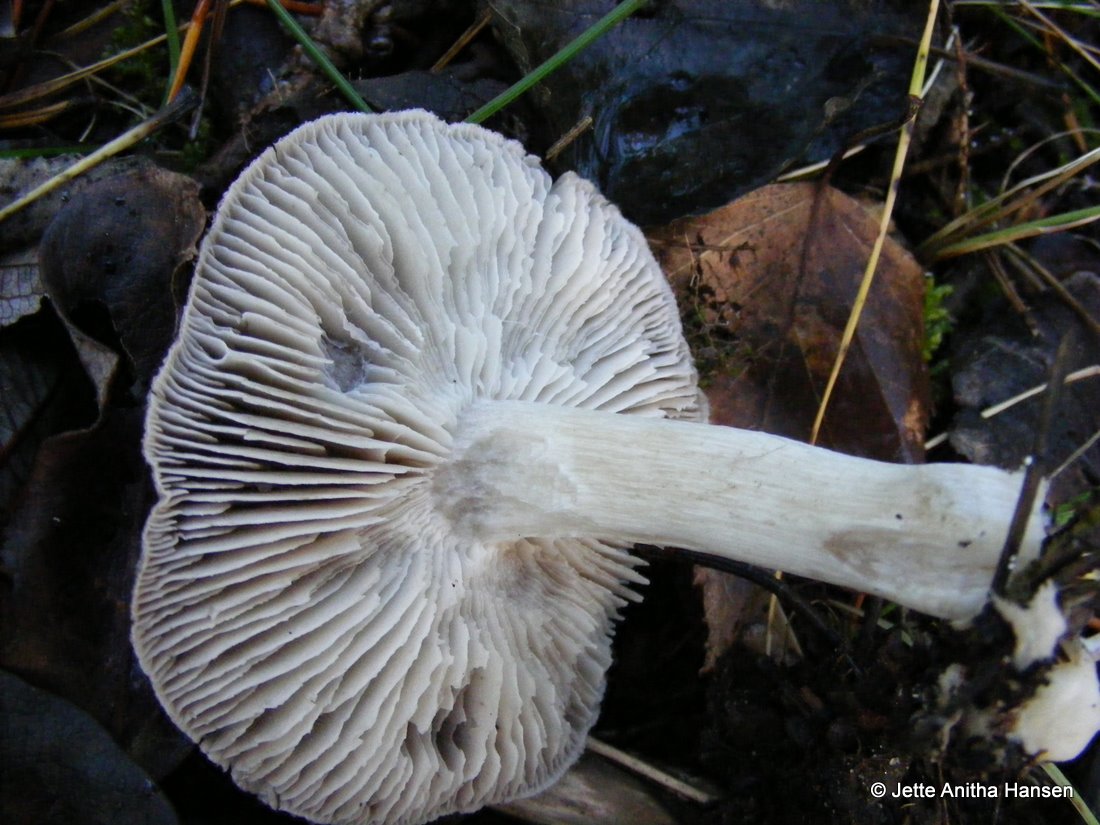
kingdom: Fungi
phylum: Basidiomycota
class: Agaricomycetes
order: Agaricales
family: Tricholomataceae
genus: Tricholoma
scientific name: Tricholoma terreum
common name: jordfarvet ridderhat
